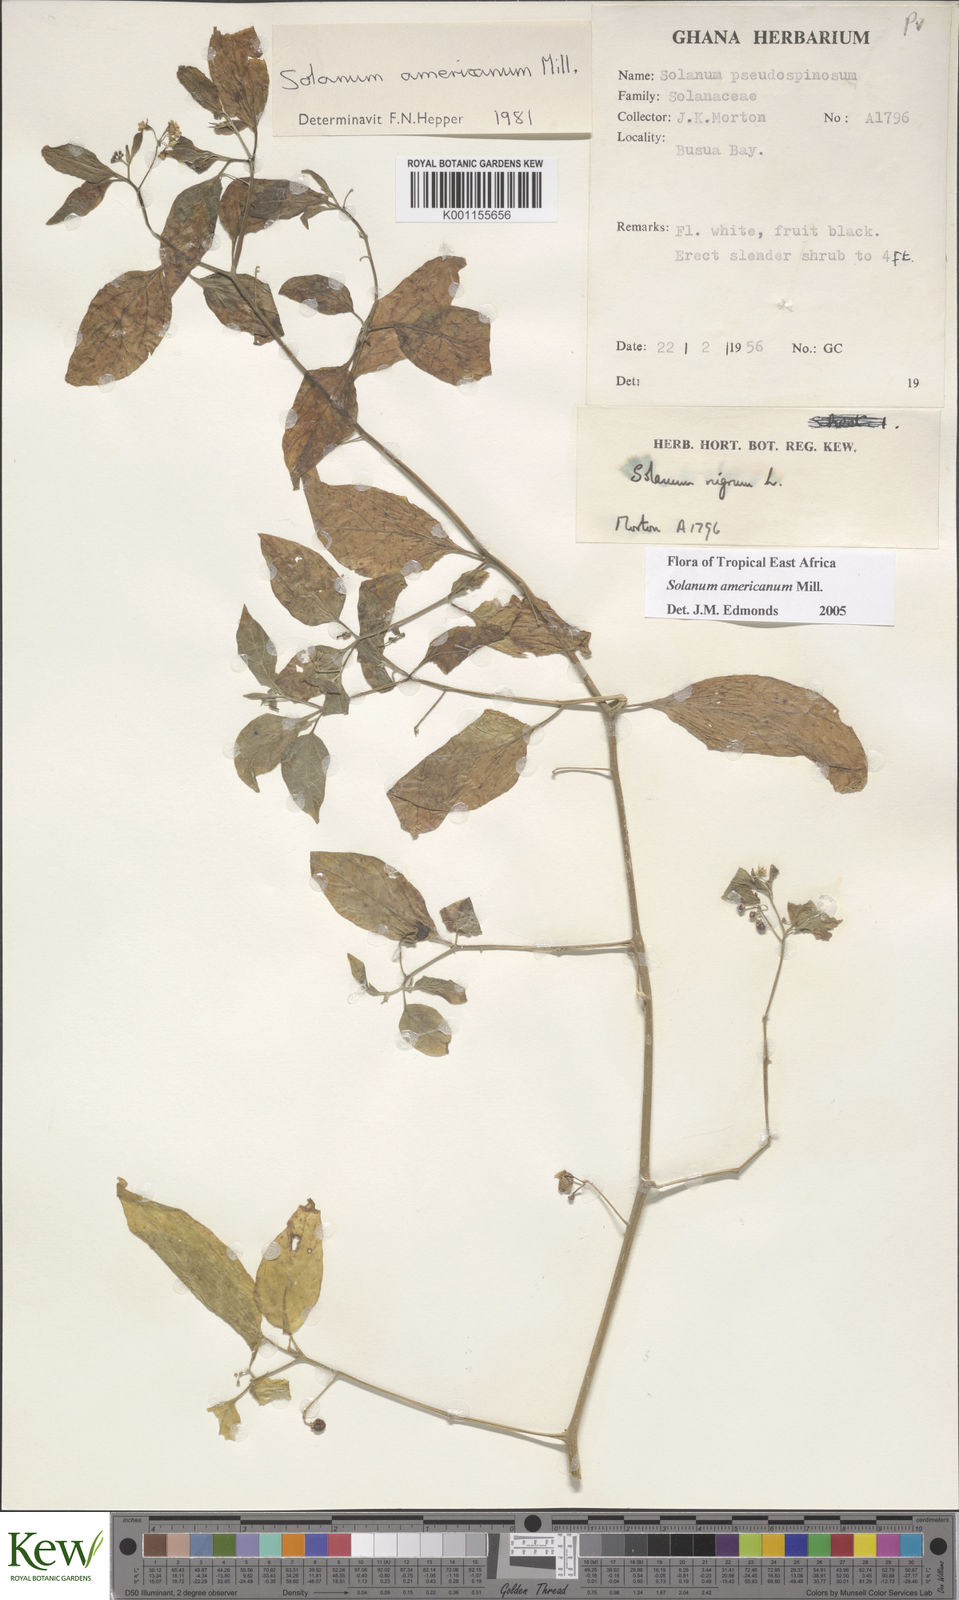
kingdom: Plantae
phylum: Tracheophyta
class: Magnoliopsida
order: Solanales
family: Solanaceae
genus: Solanum
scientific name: Solanum americanum
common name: American black nightshade
